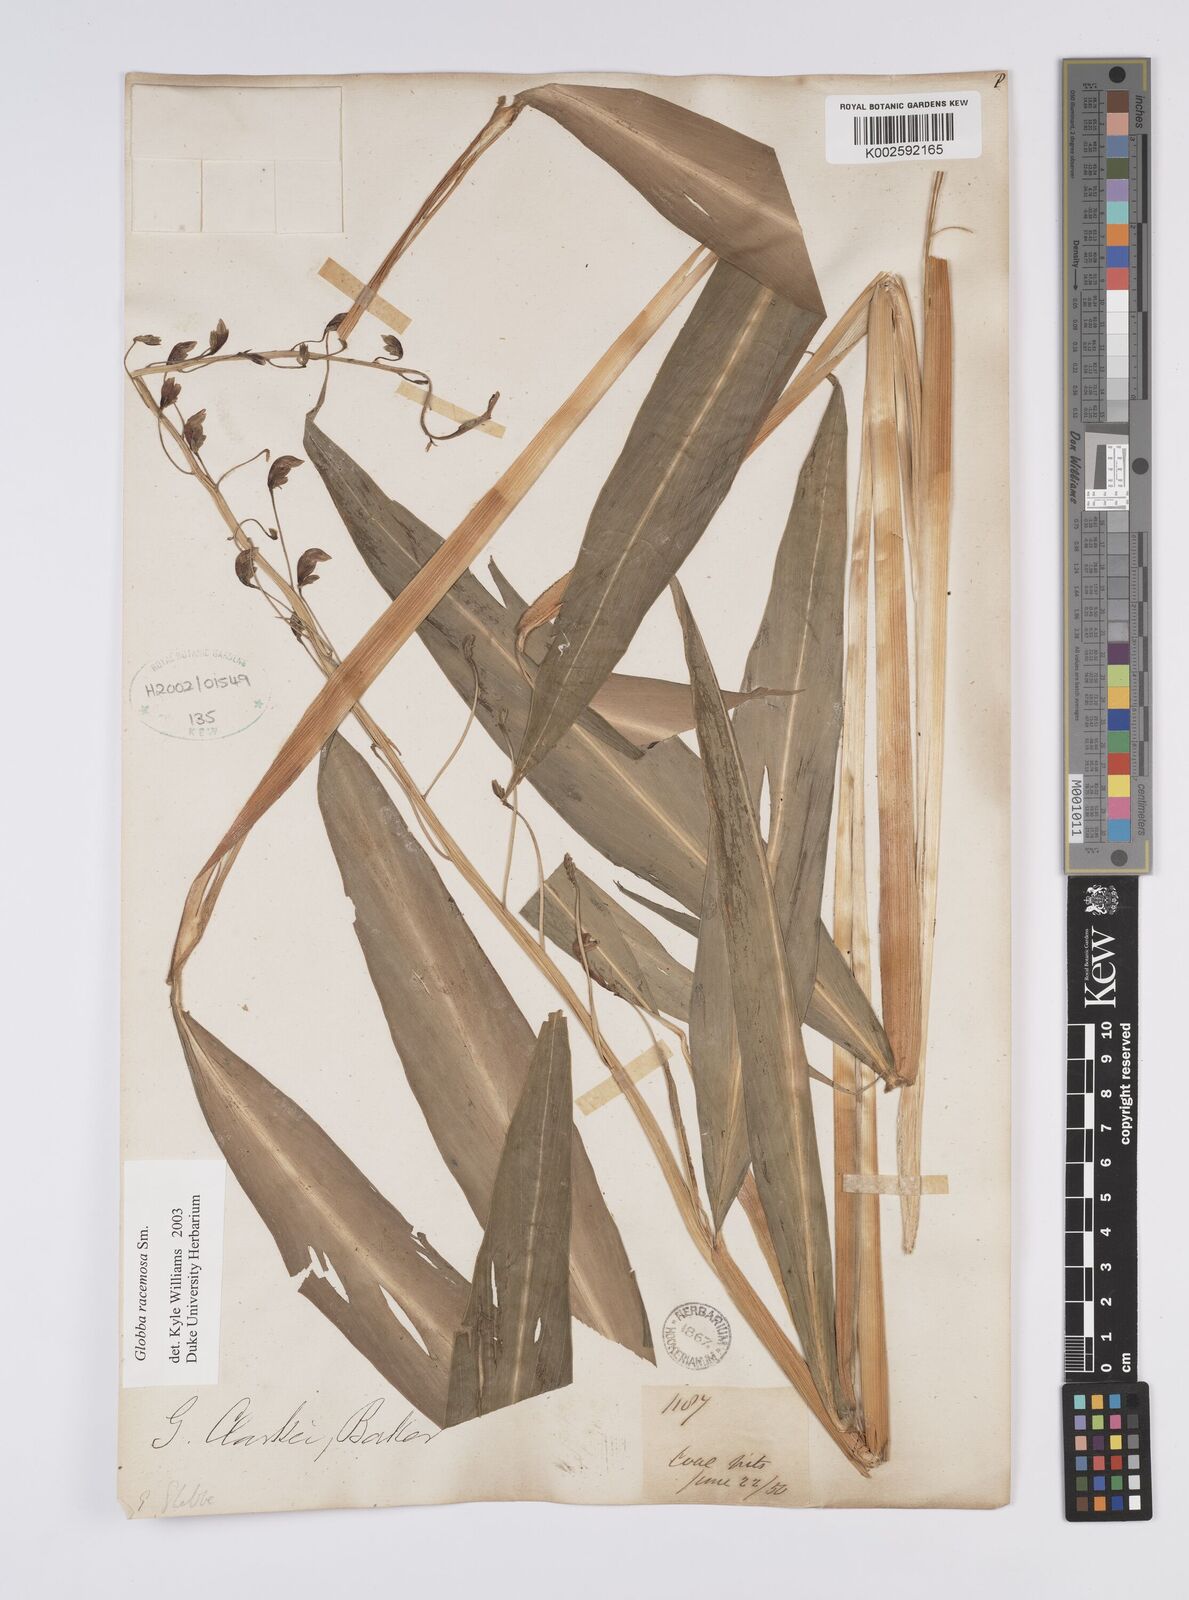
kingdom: Plantae
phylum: Tracheophyta
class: Liliopsida
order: Zingiberales
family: Zingiberaceae
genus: Globba
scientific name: Globba racemosa
